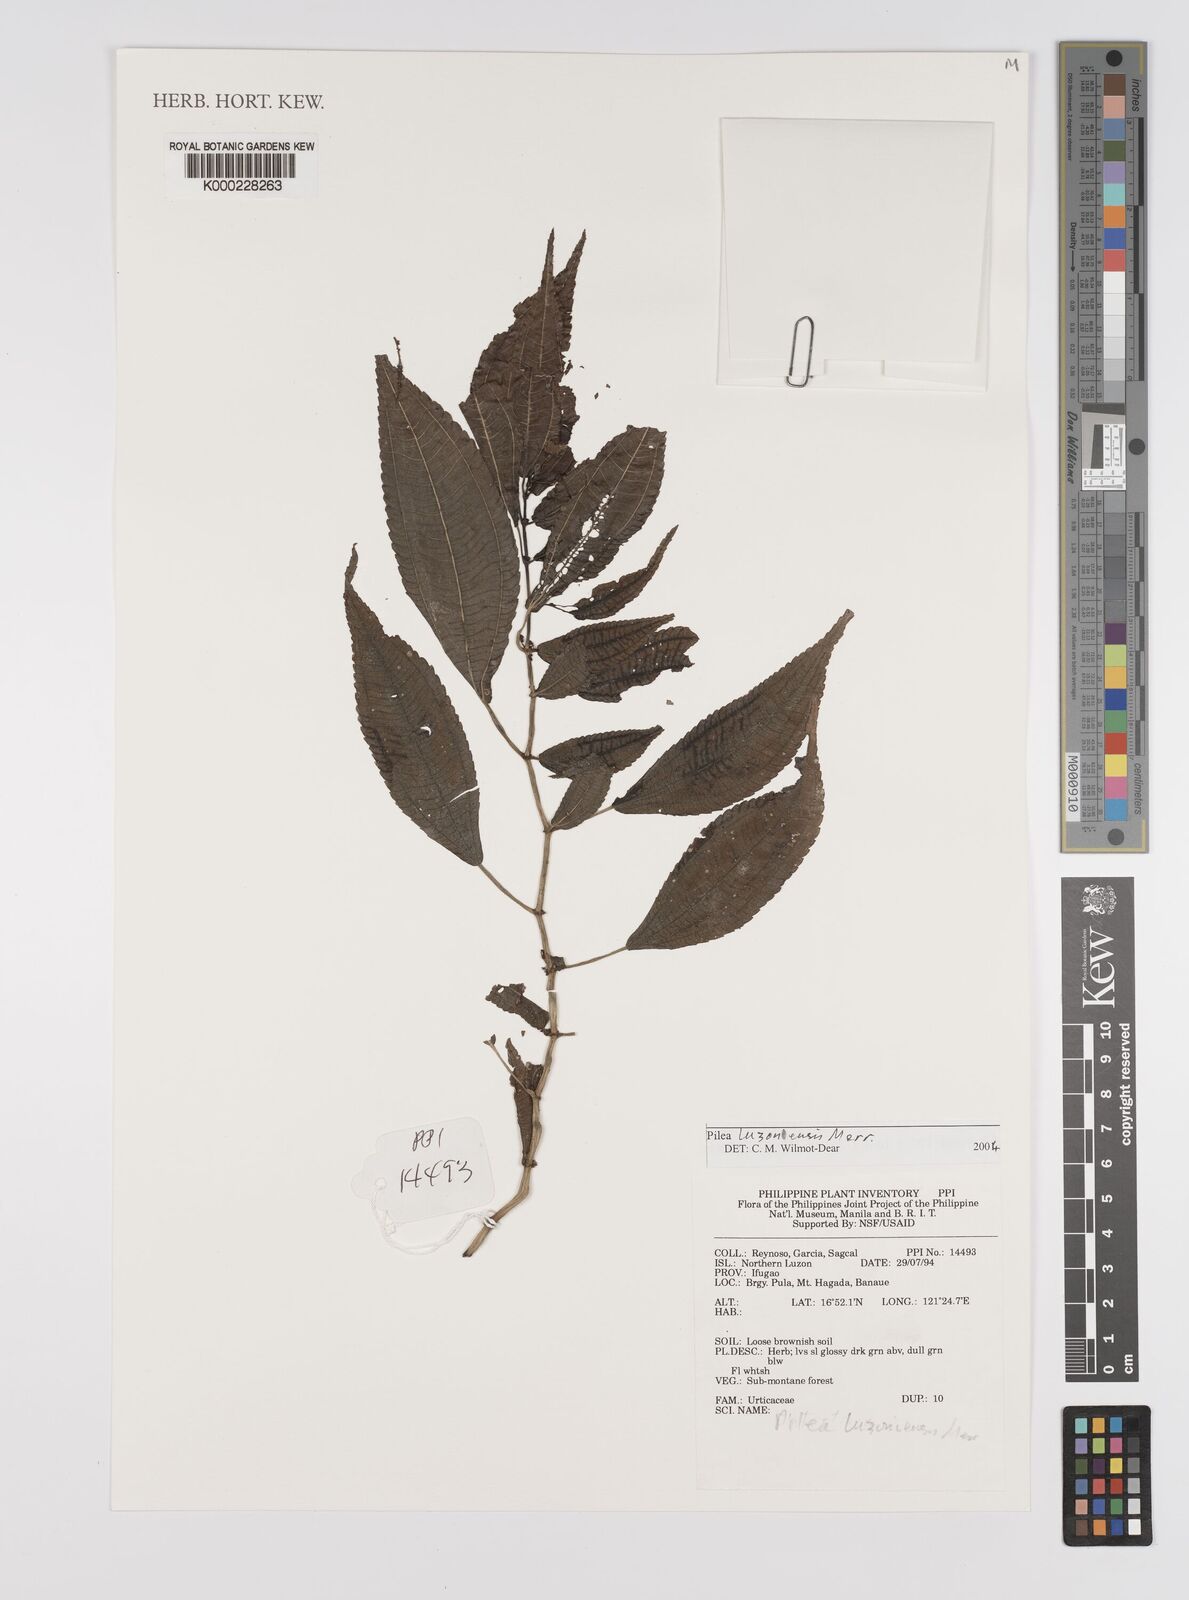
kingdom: Plantae
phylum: Tracheophyta
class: Magnoliopsida
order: Rosales
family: Urticaceae
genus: Pilea
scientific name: Pilea luzonensis
